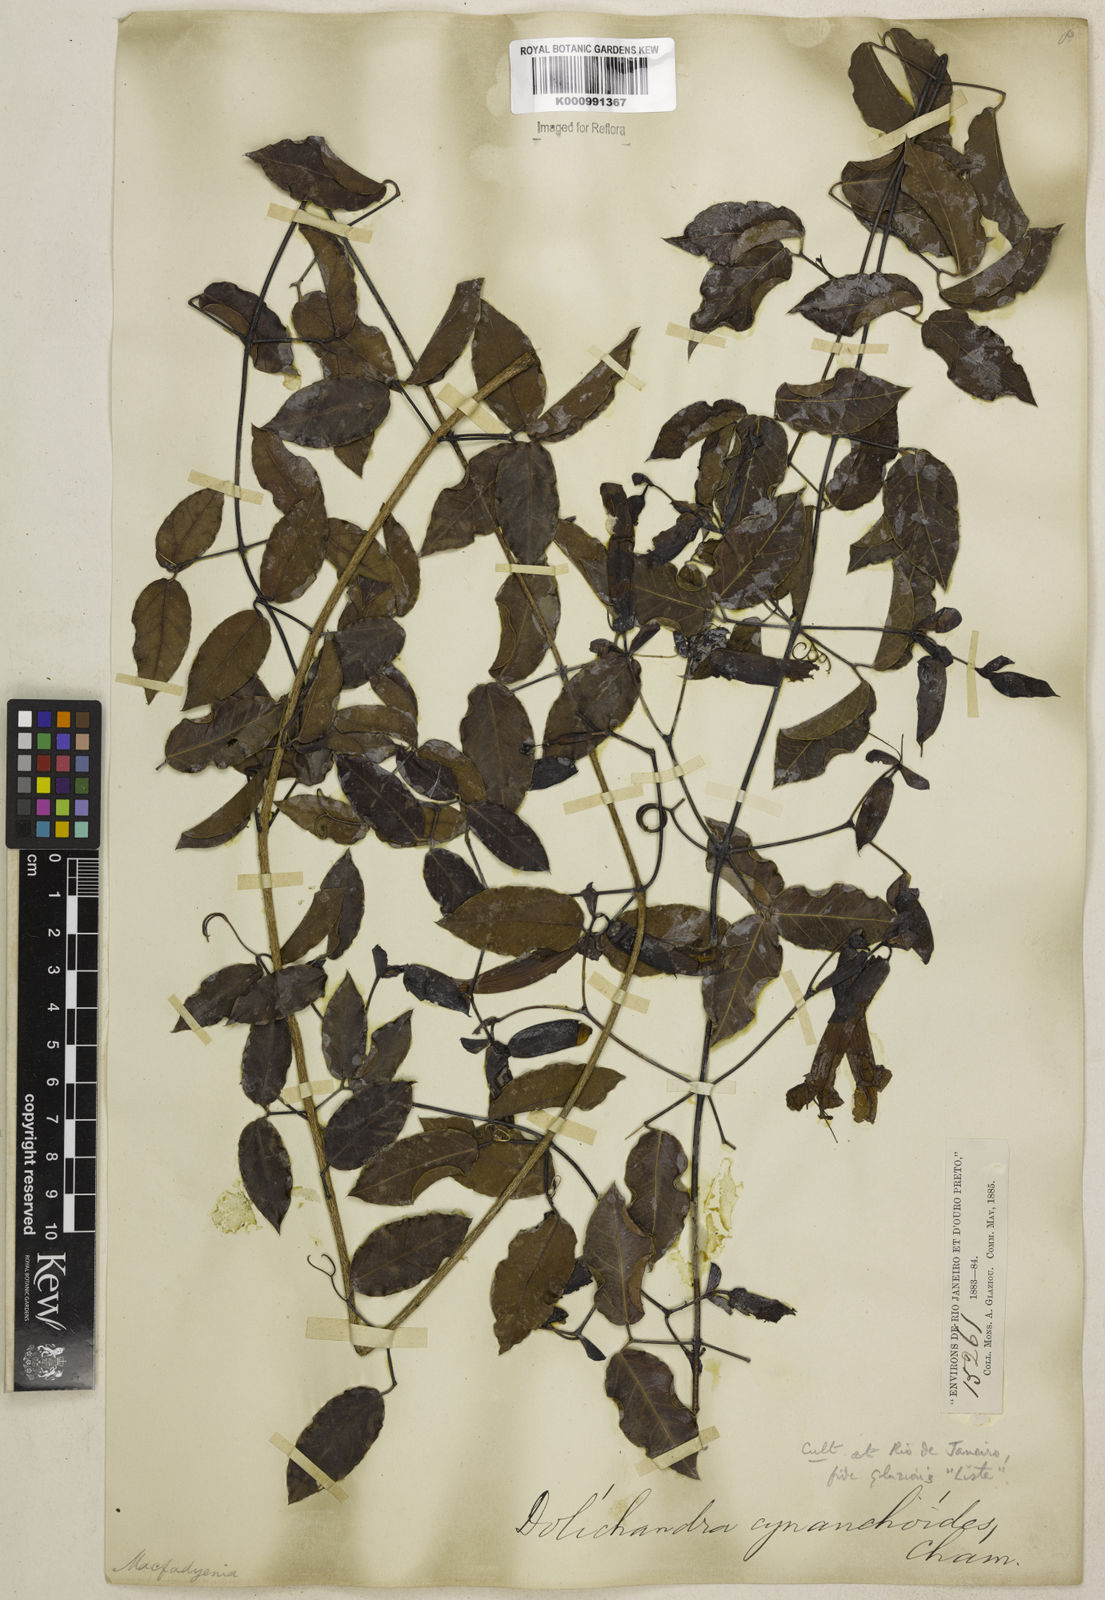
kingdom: Plantae
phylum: Tracheophyta
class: Magnoliopsida
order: Lamiales
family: Bignoniaceae
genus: Dolichandra
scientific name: Dolichandra cynanchoides
